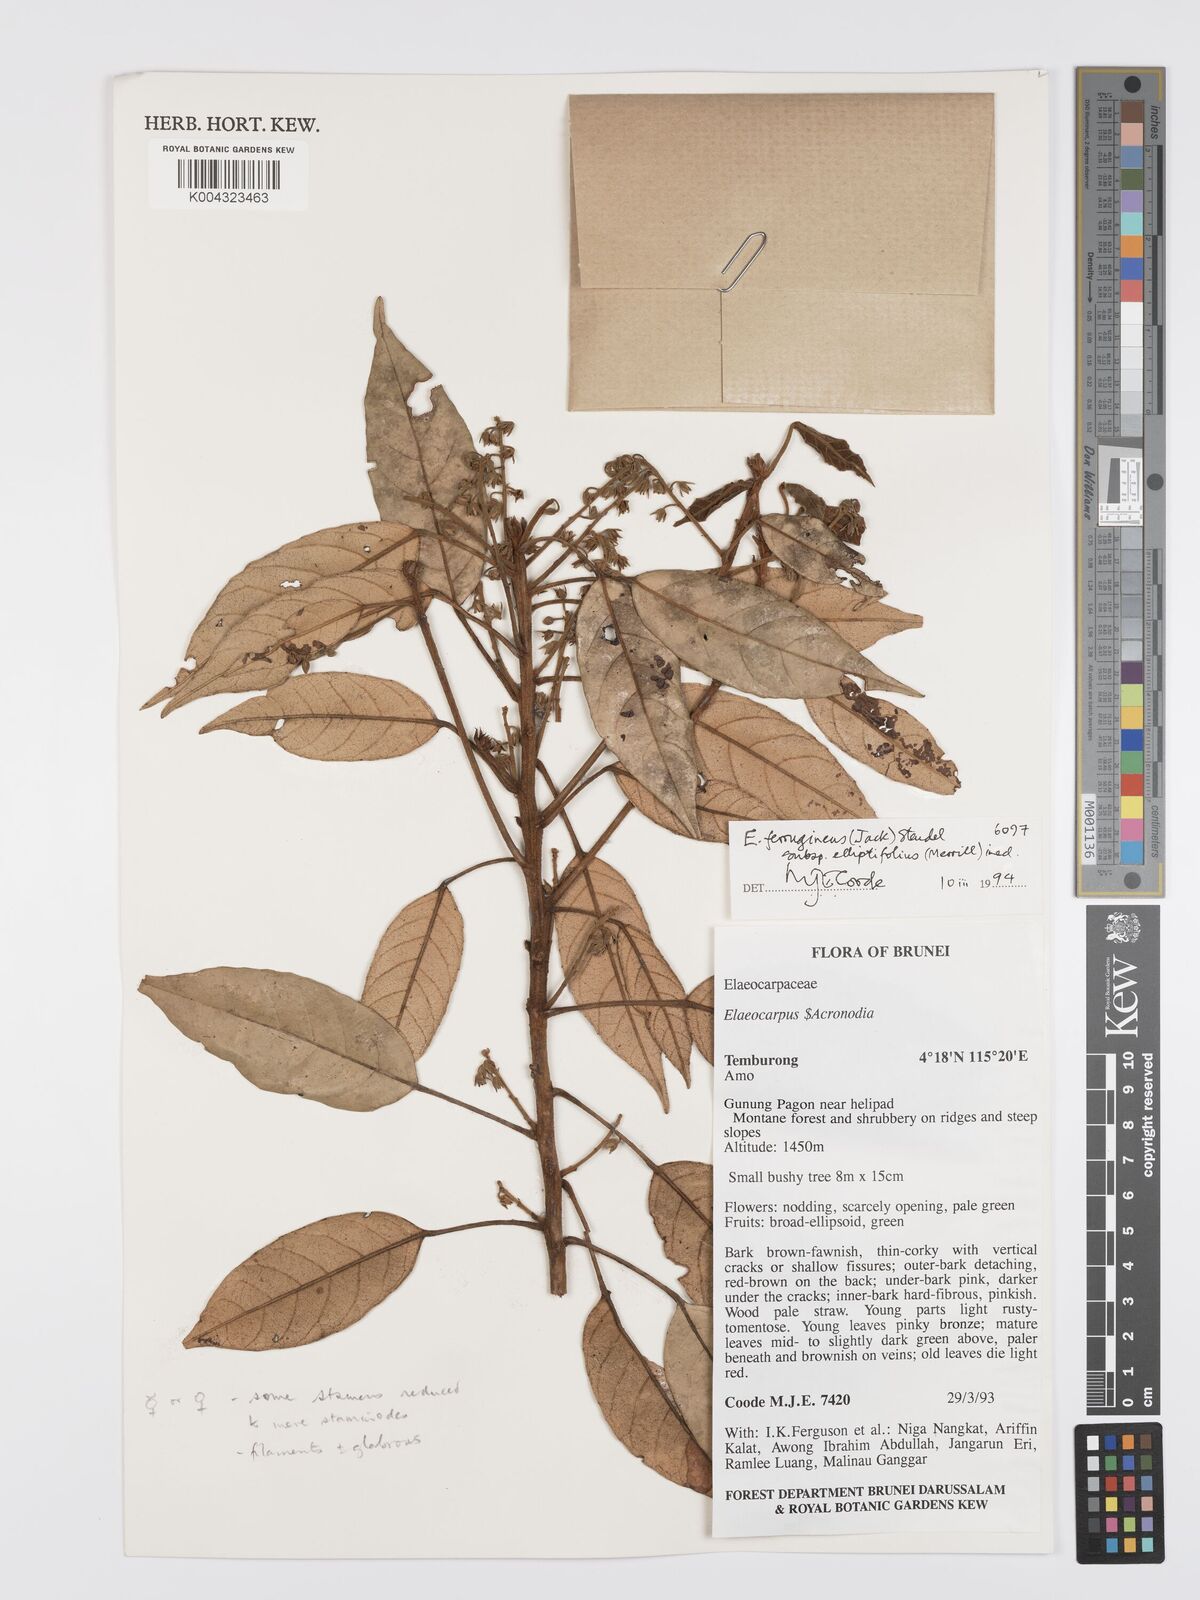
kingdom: Plantae
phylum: Tracheophyta
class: Magnoliopsida
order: Oxalidales
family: Elaeocarpaceae
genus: Elaeocarpus
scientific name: Elaeocarpus ferrugineus
